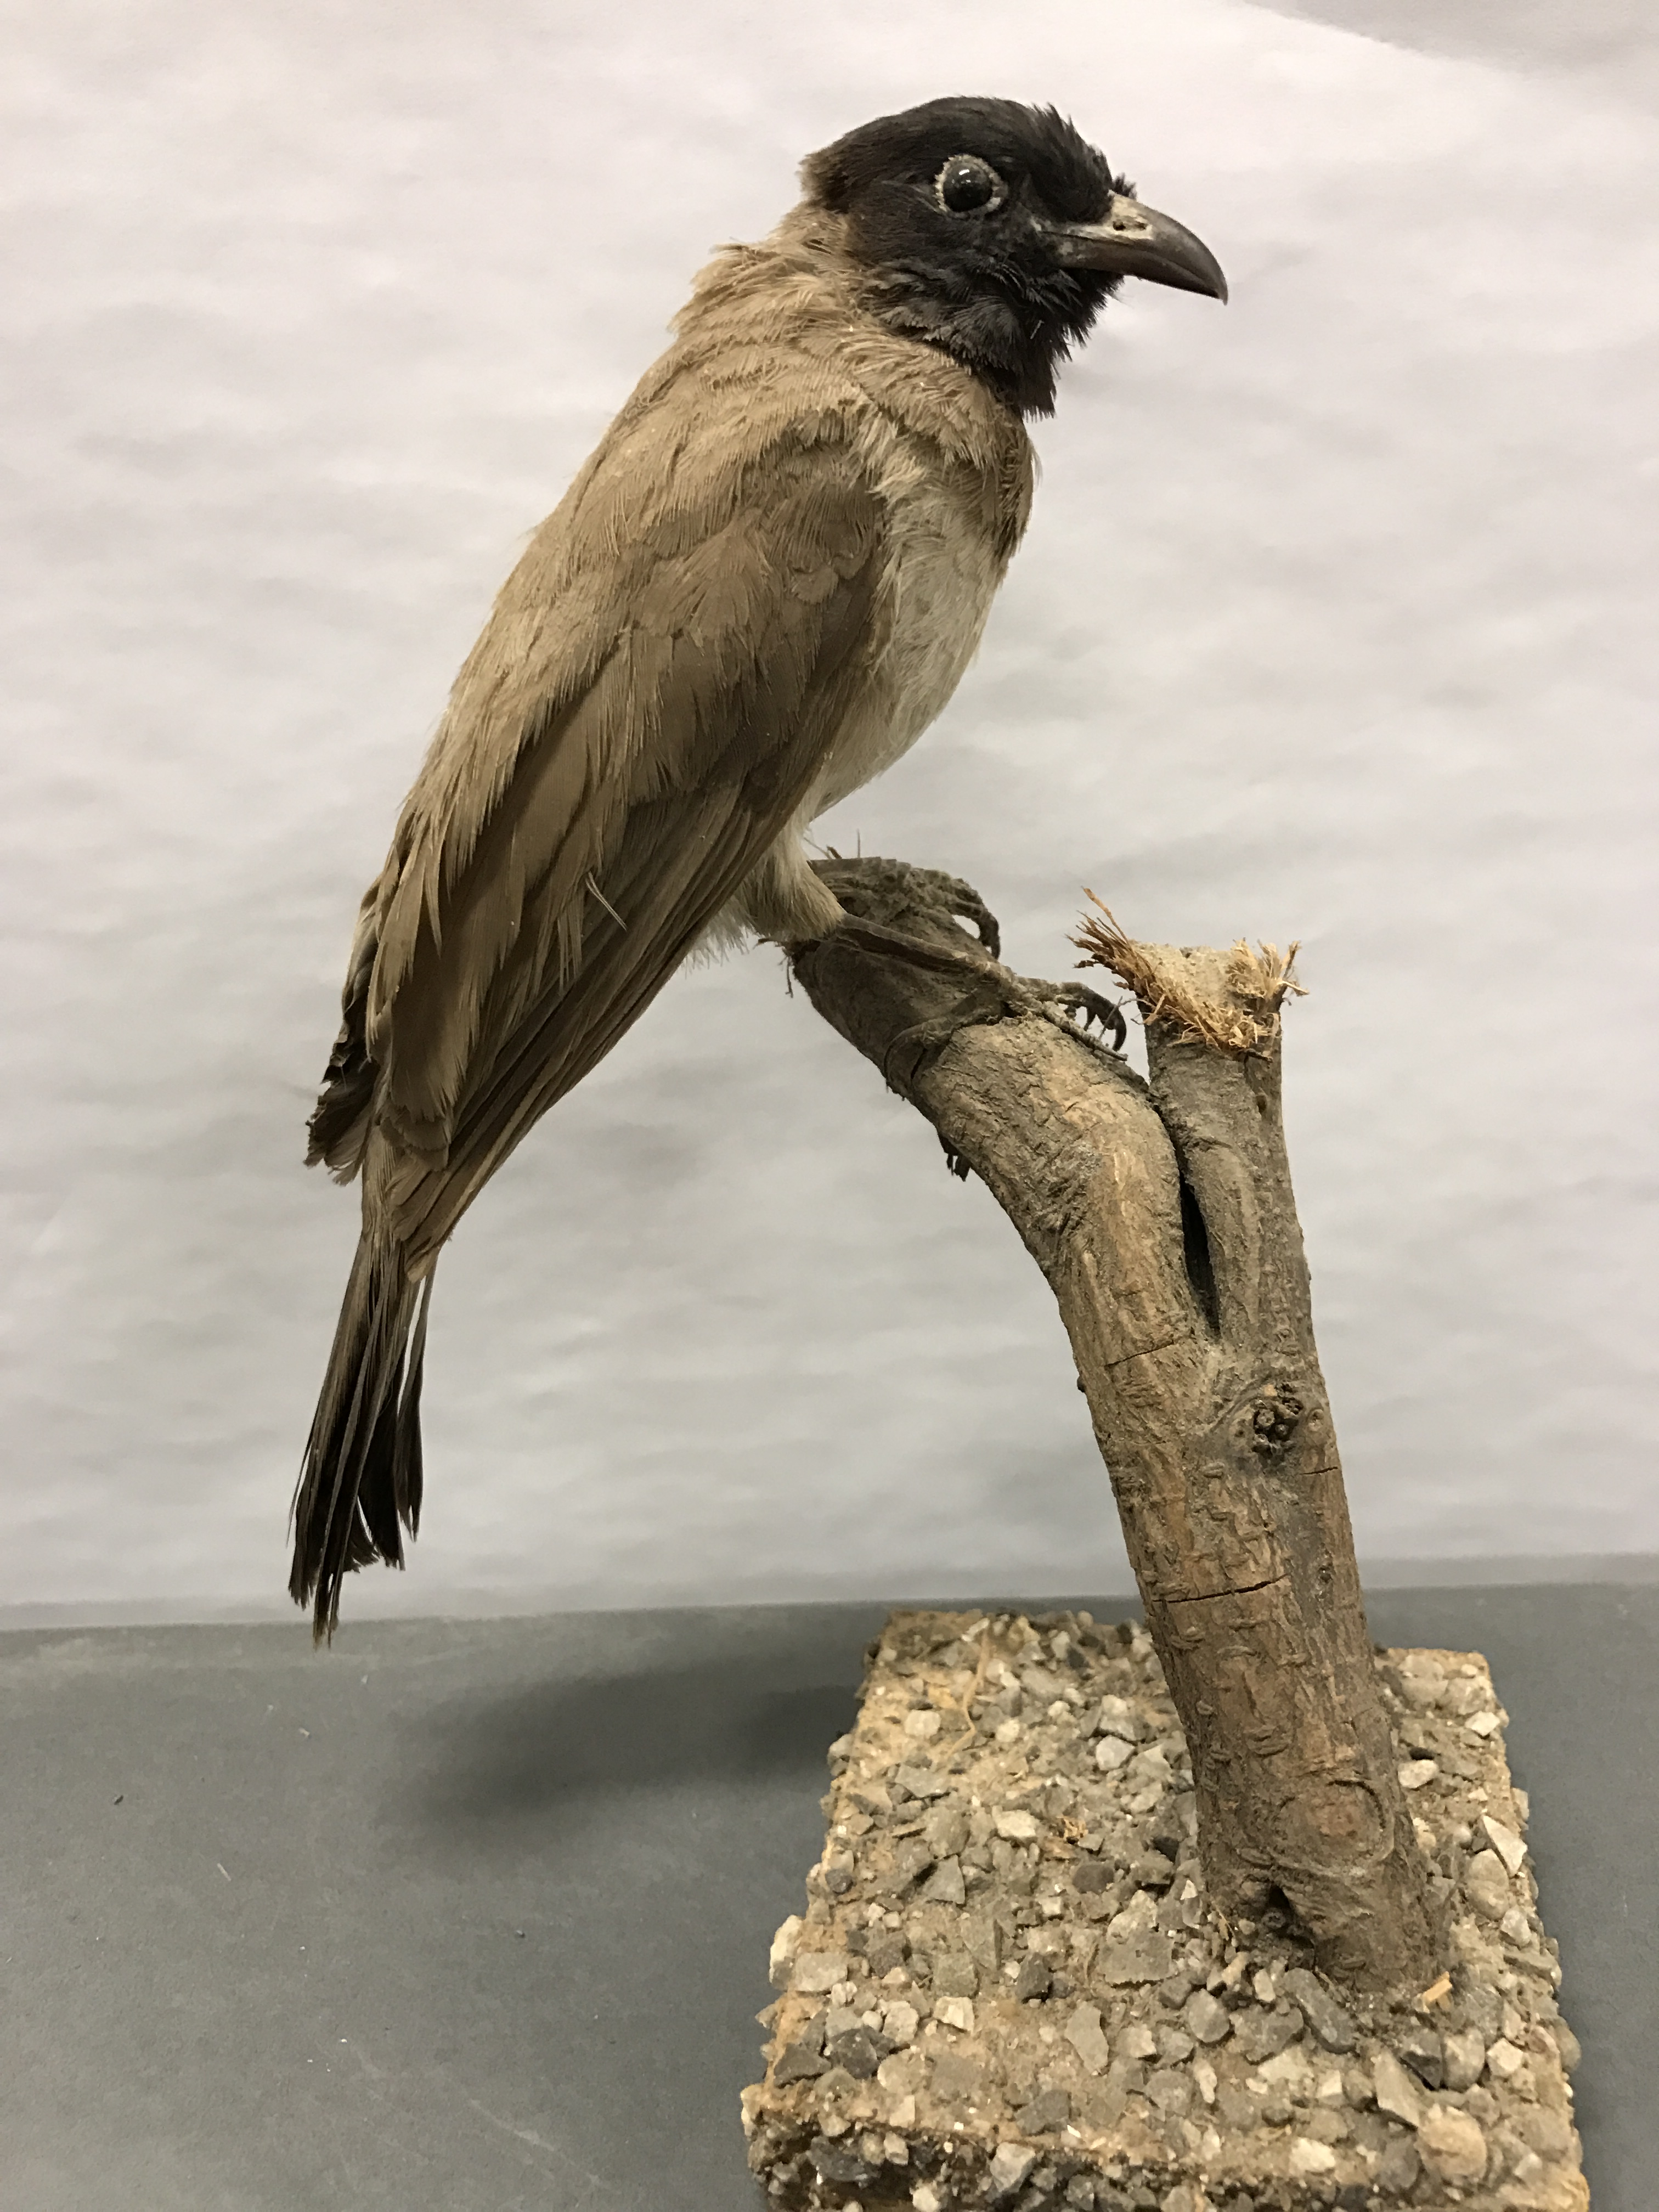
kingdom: Animalia
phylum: Chordata
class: Aves
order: Passeriformes
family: Pycnonotidae
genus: Pycnonotus
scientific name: Pycnonotus xanthopygos
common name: White-spectacled bulbul
